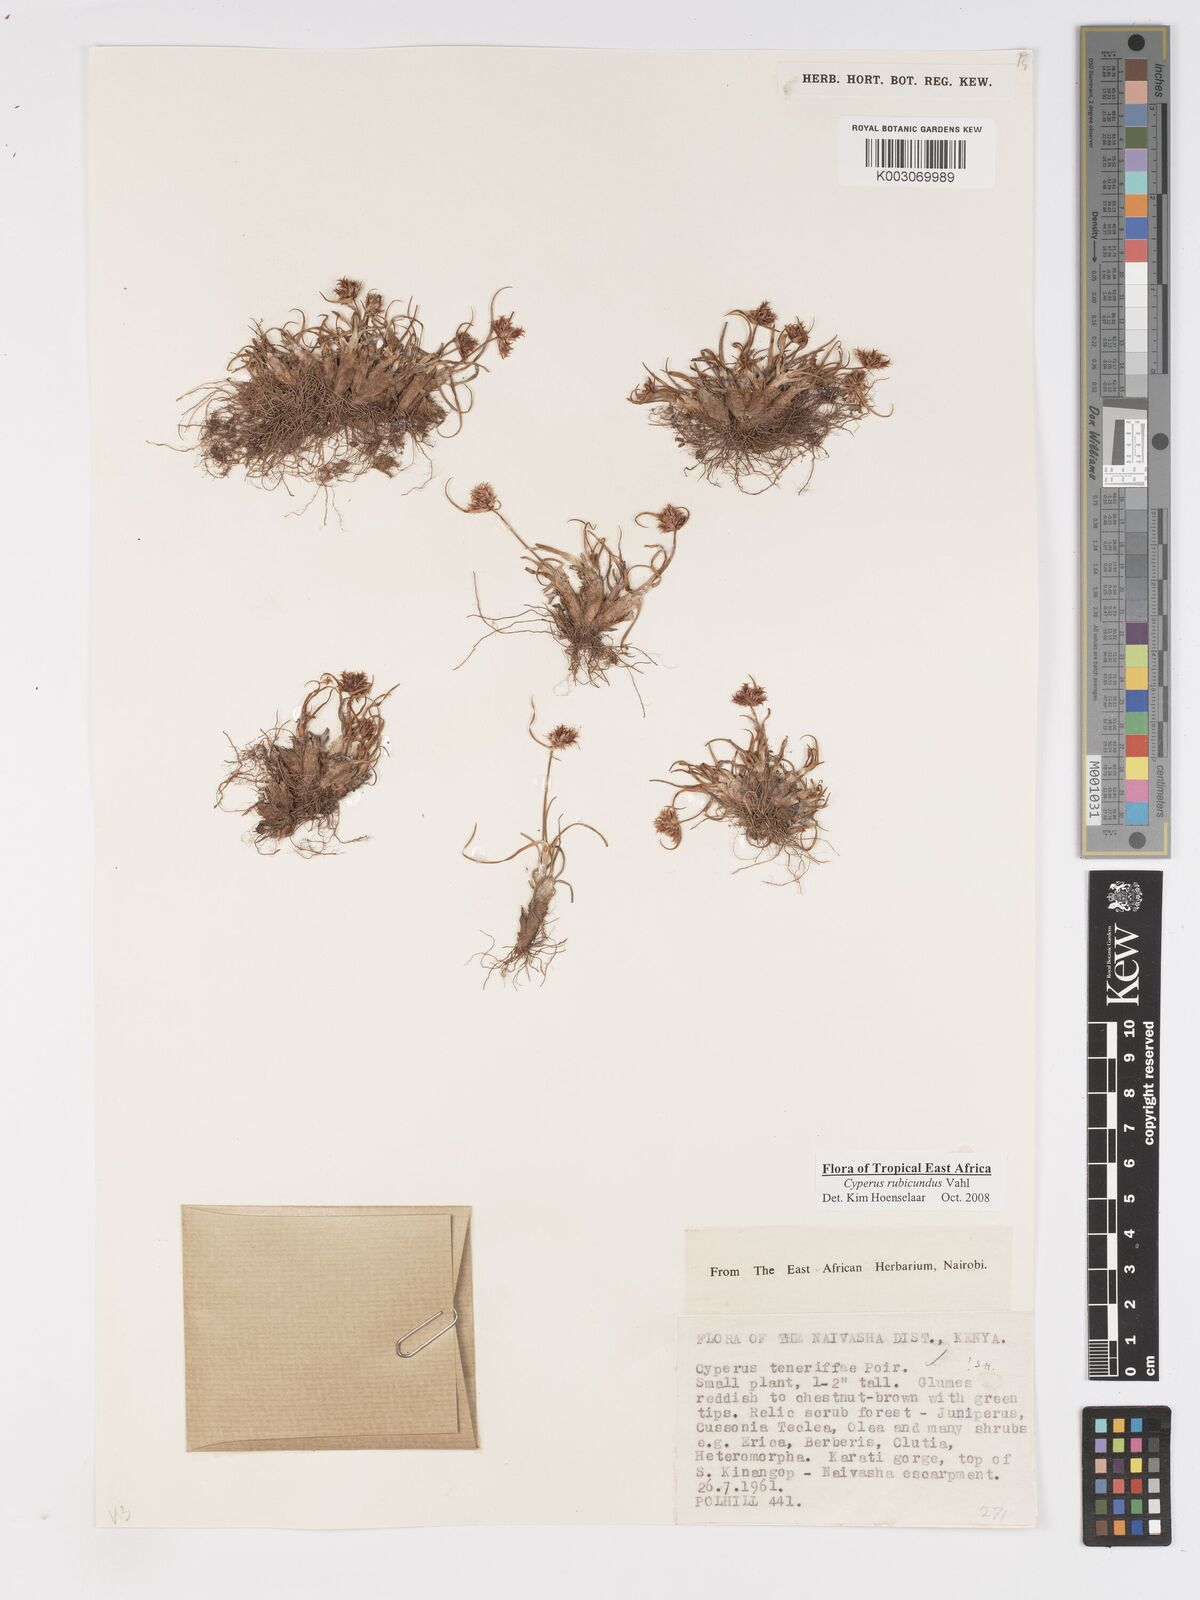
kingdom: Plantae
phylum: Tracheophyta
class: Liliopsida
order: Poales
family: Cyperaceae
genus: Cyperus
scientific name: Cyperus rubicundus
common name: Coco-grass
